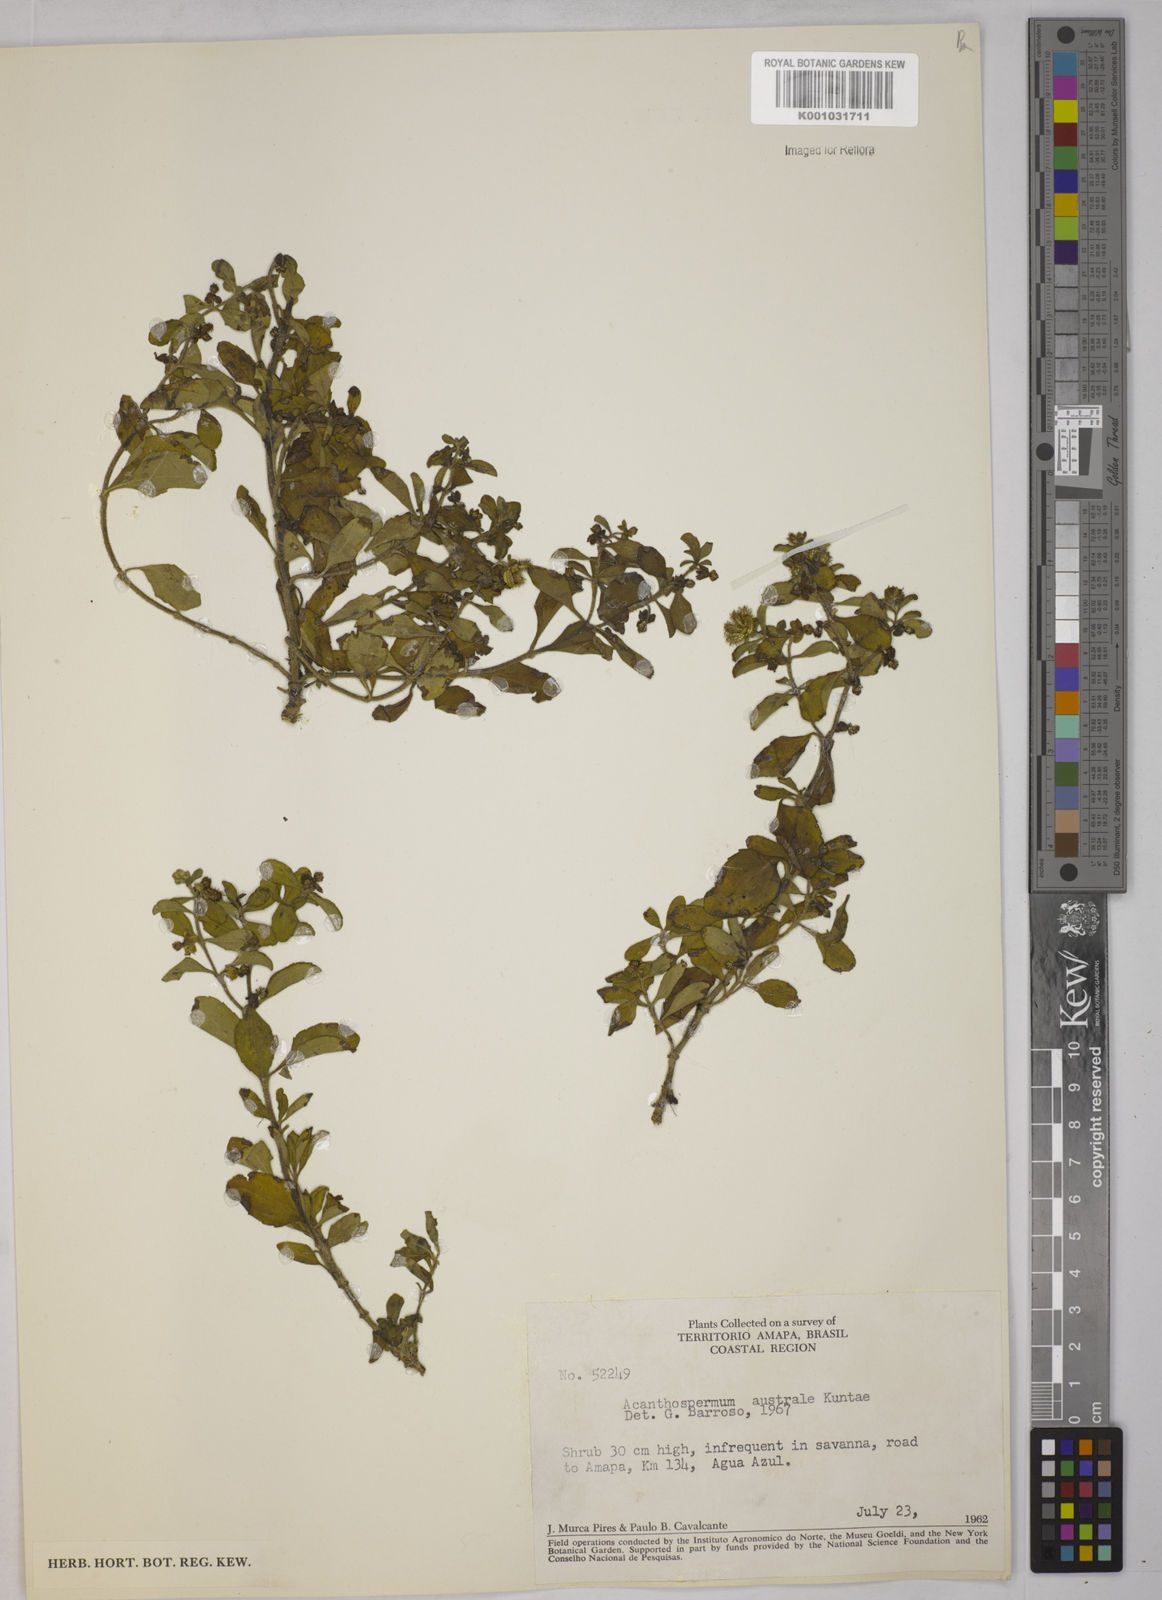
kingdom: Plantae
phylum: Tracheophyta
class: Magnoliopsida
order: Asterales
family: Asteraceae
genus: Acanthospermum
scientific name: Acanthospermum australe
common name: Paraguayan starbur
